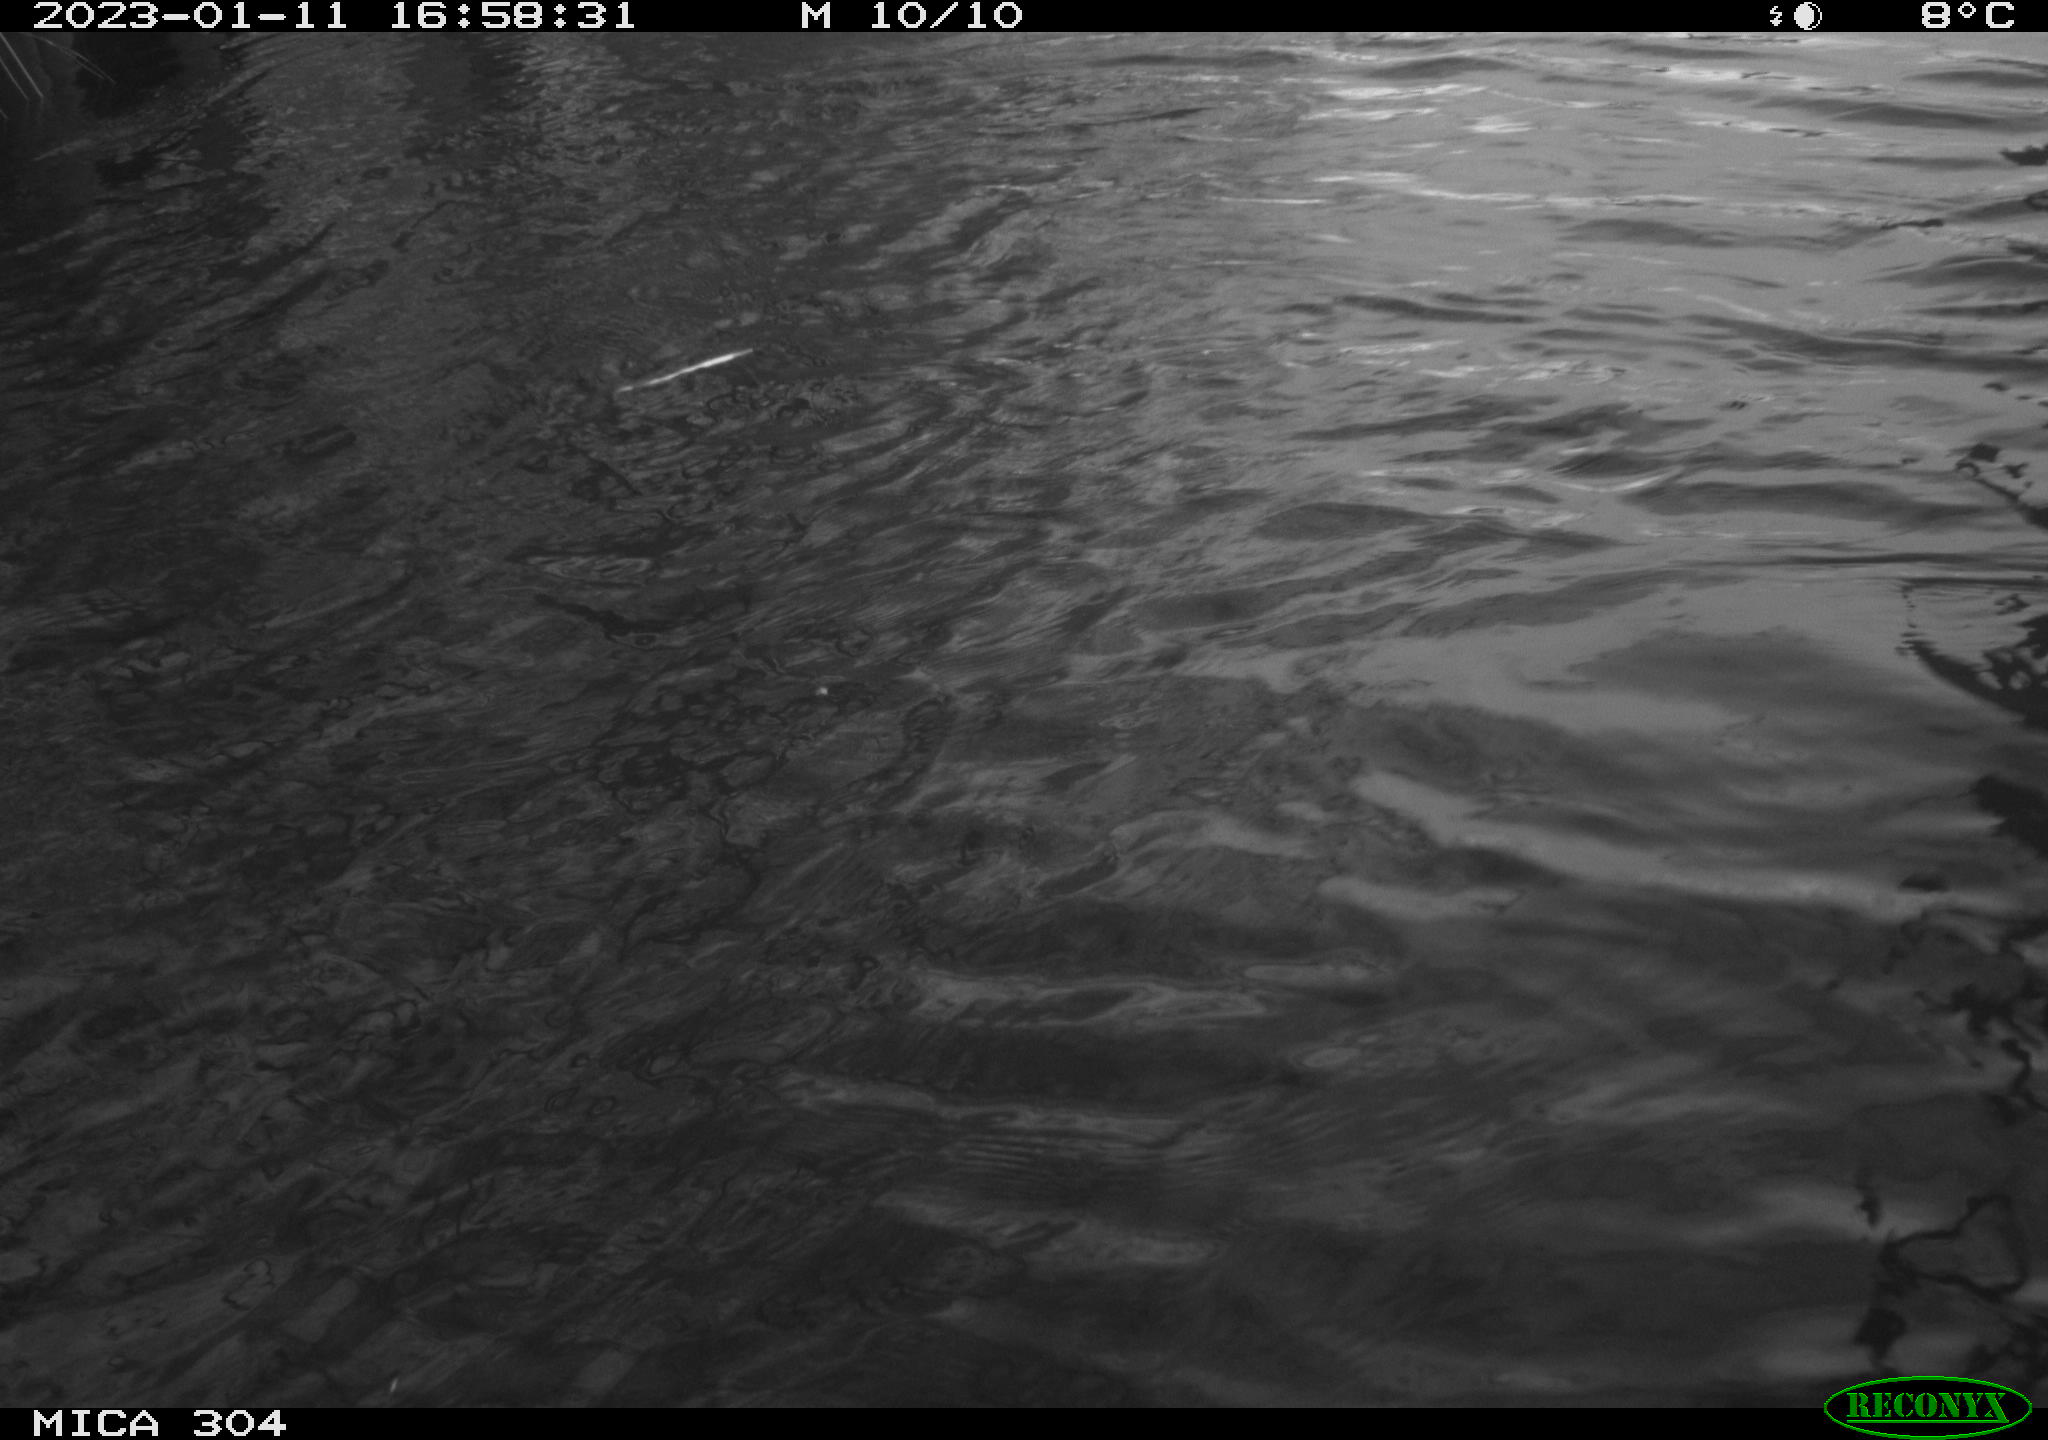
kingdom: Animalia
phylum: Chordata
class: Aves
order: Gruiformes
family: Rallidae
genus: Fulica
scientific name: Fulica atra
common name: Eurasian coot
